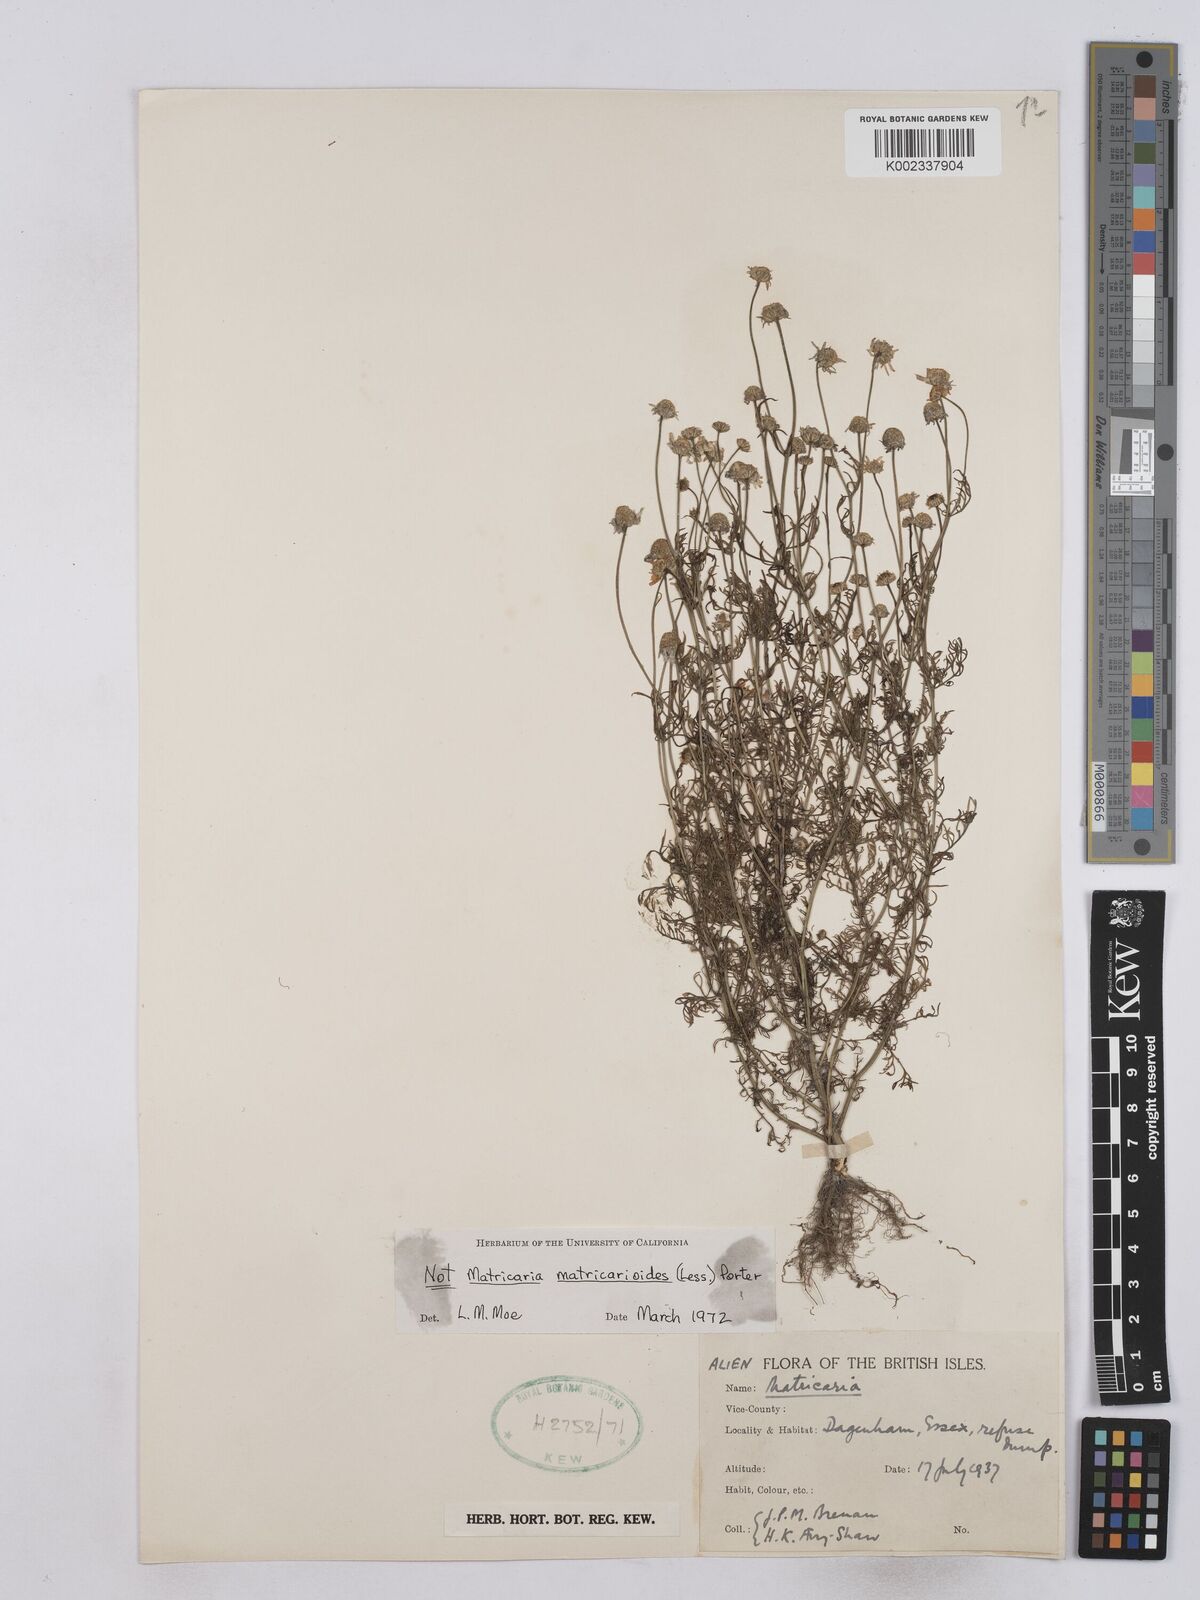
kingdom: Plantae
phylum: Tracheophyta
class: Magnoliopsida
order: Asterales
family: Asteraceae
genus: Matricaria
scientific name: Matricaria discoidea
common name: Disc mayweed
